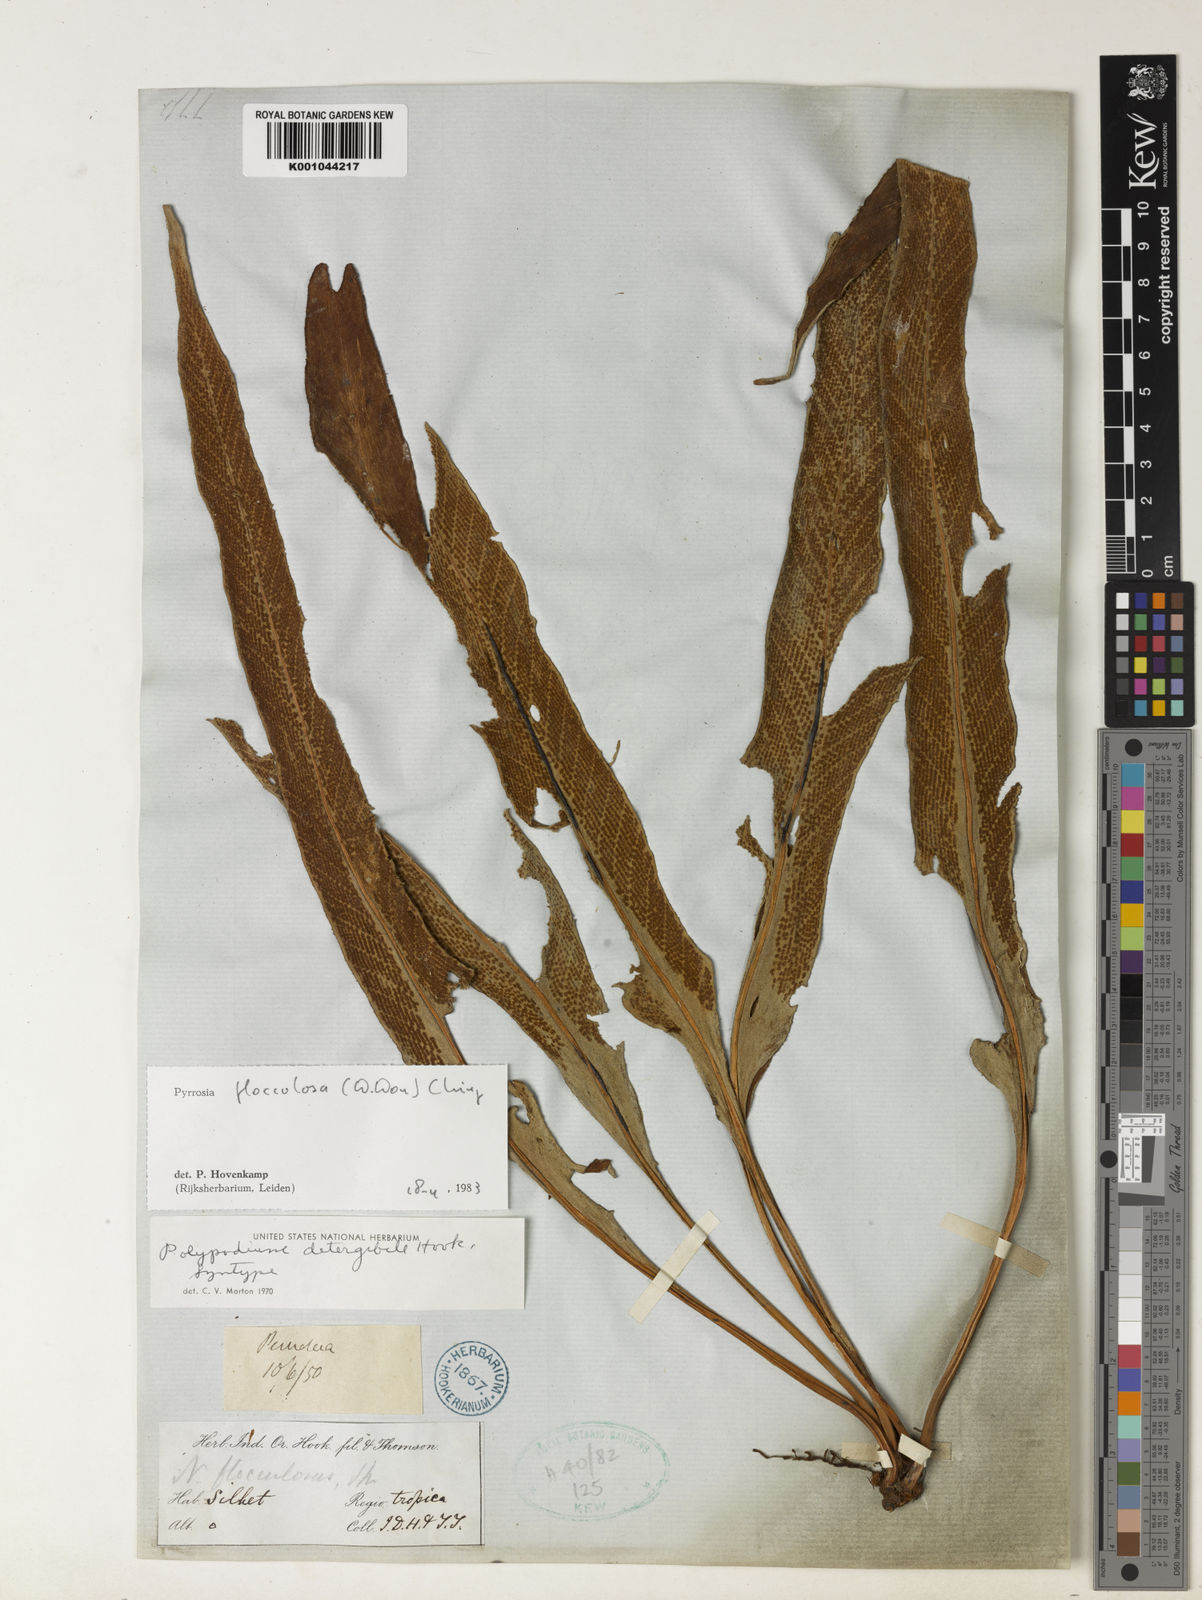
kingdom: Plantae
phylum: Tracheophyta
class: Polypodiopsida
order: Polypodiales
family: Polypodiaceae
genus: Pyrrosia
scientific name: Pyrrosia flocculosa
